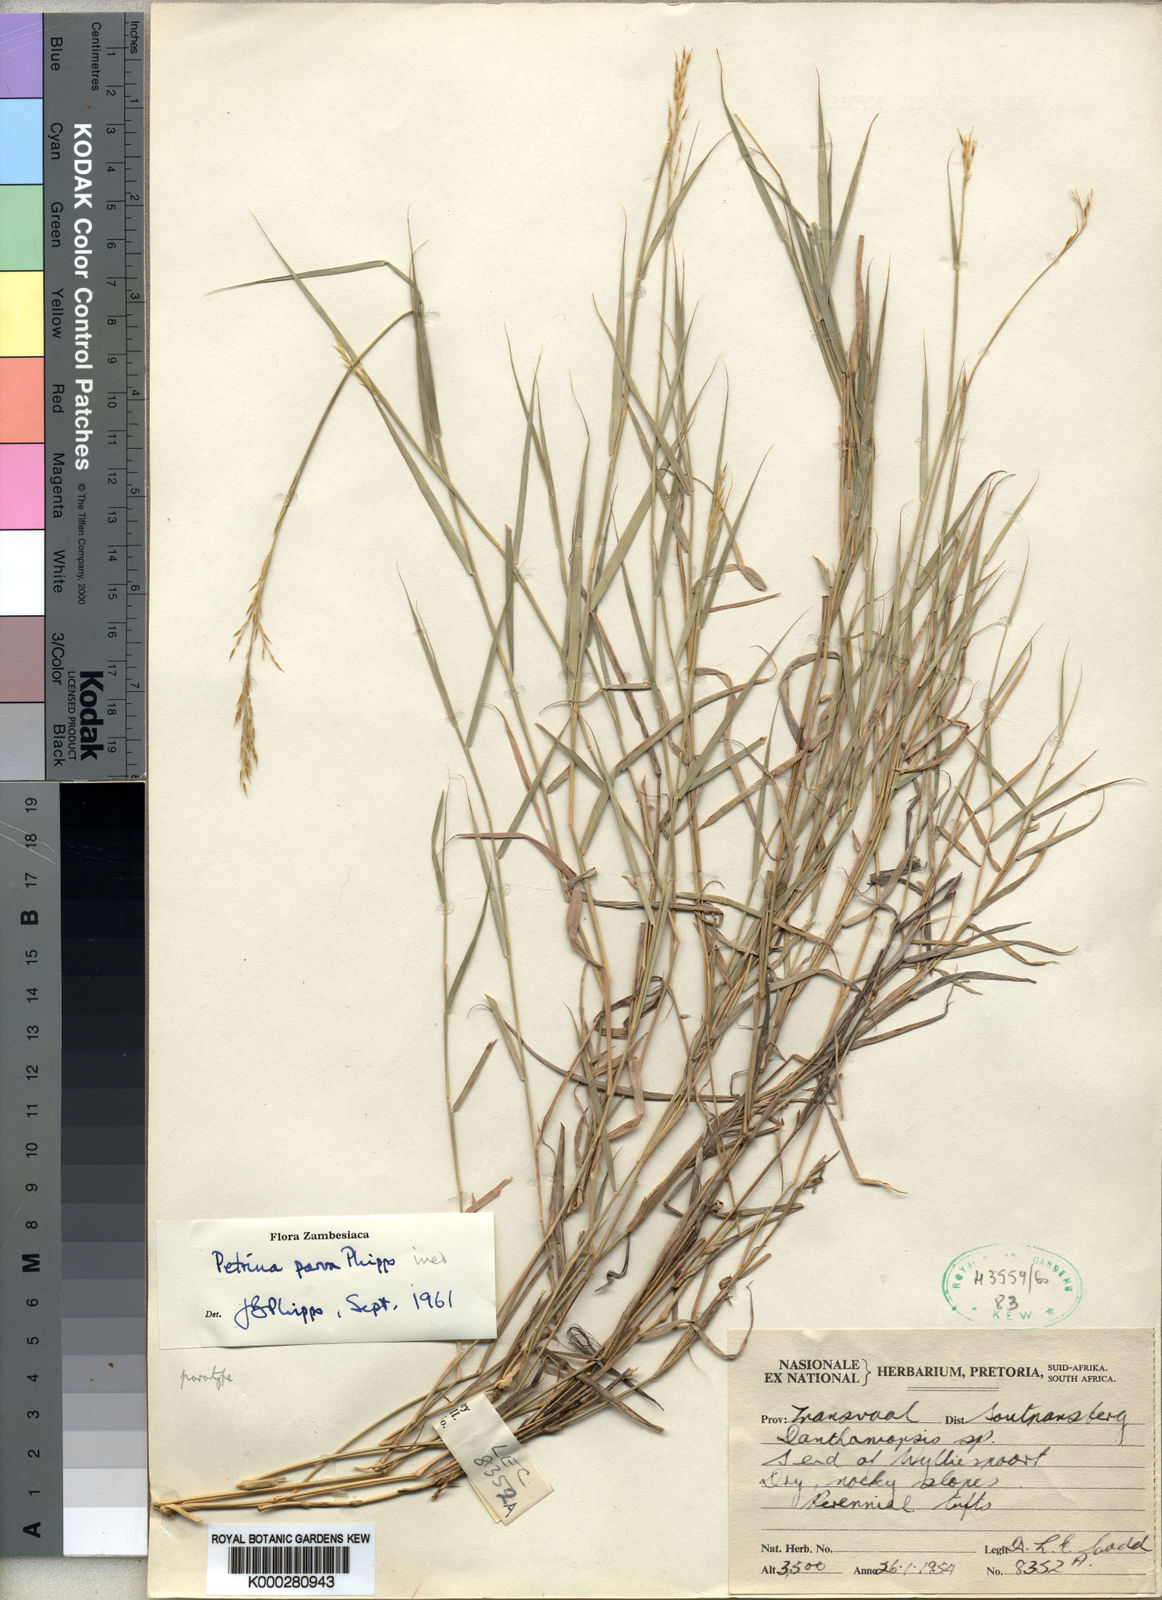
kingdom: Plantae
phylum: Tracheophyta
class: Liliopsida
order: Poales
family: Poaceae
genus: Danthoniopsis
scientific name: Danthoniopsis parva
